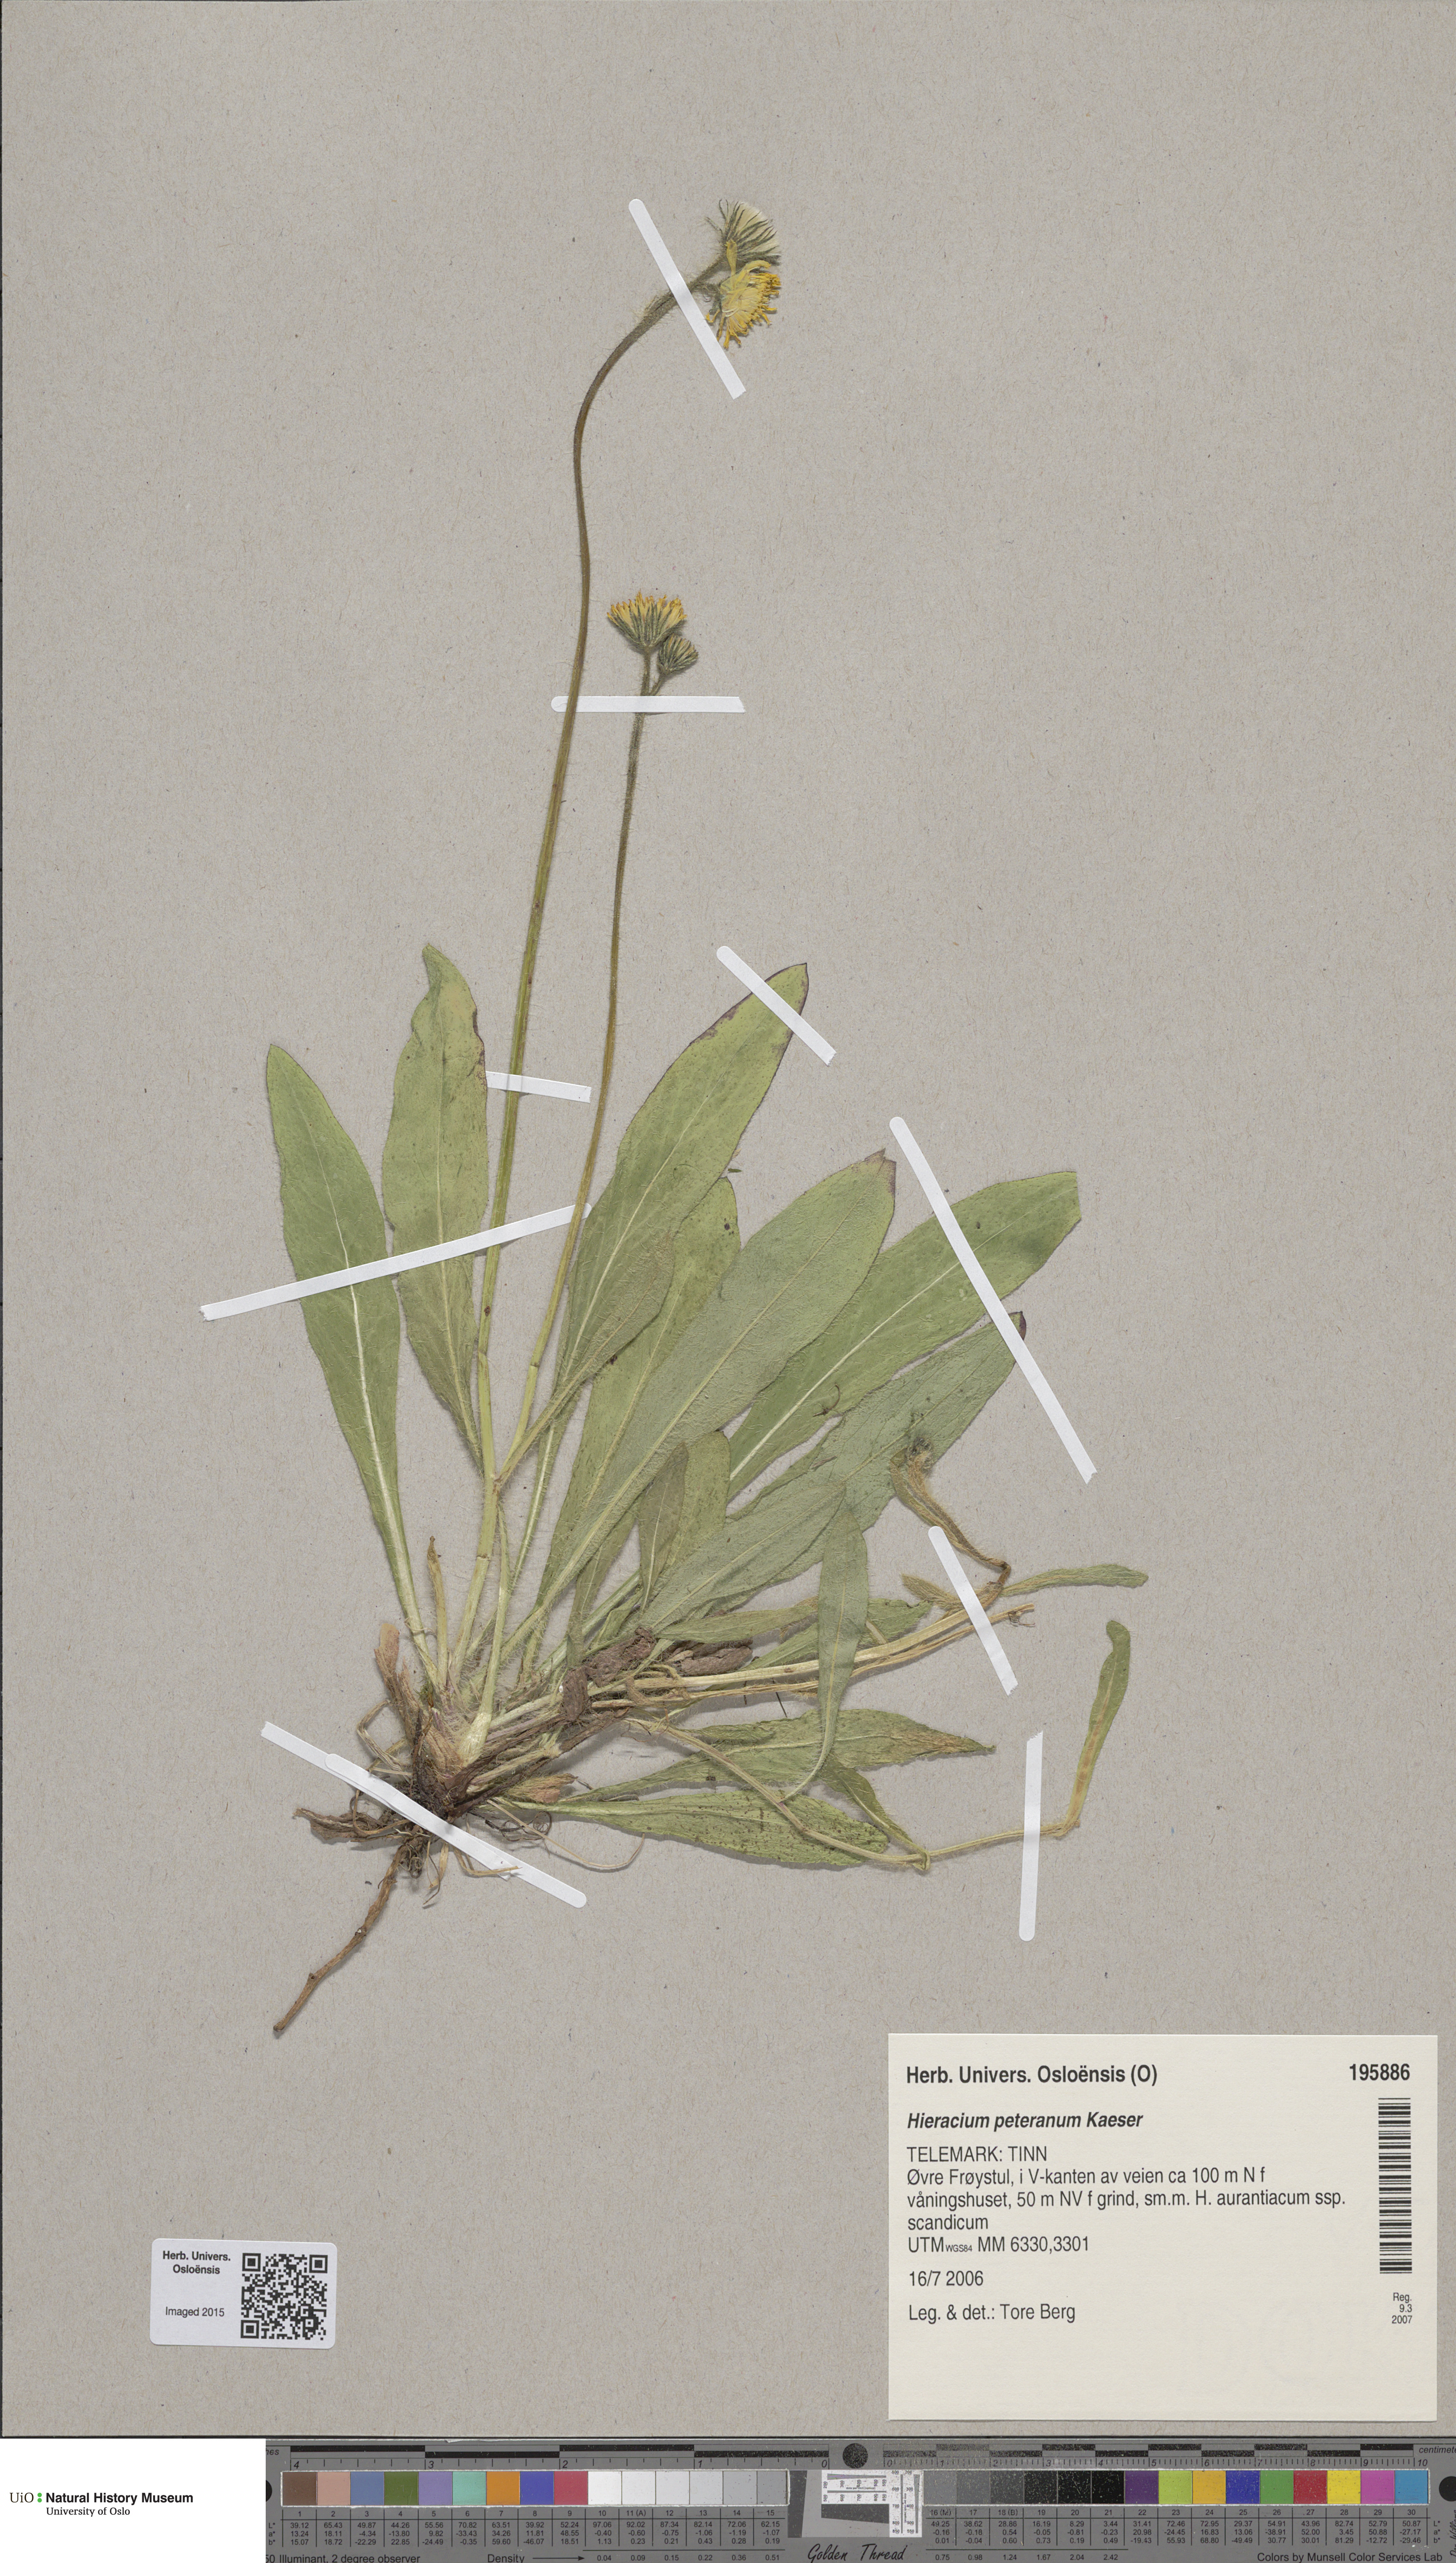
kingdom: Plantae
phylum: Tracheophyta
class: Magnoliopsida
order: Asterales
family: Asteraceae
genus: Pilosella
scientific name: Pilosella peteriana
